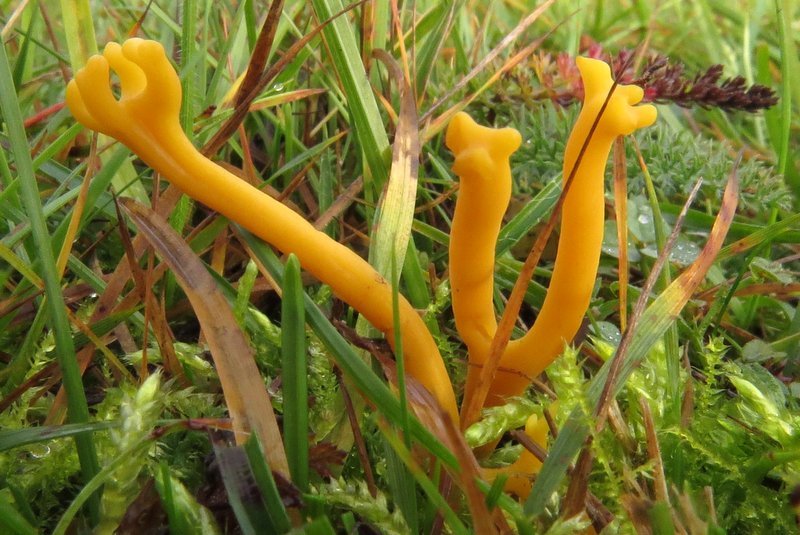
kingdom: Fungi
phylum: Basidiomycota
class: Agaricomycetes
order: Agaricales
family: Clavariaceae
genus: Clavulinopsis
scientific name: Clavulinopsis corniculata
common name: eng-køllesvamp
